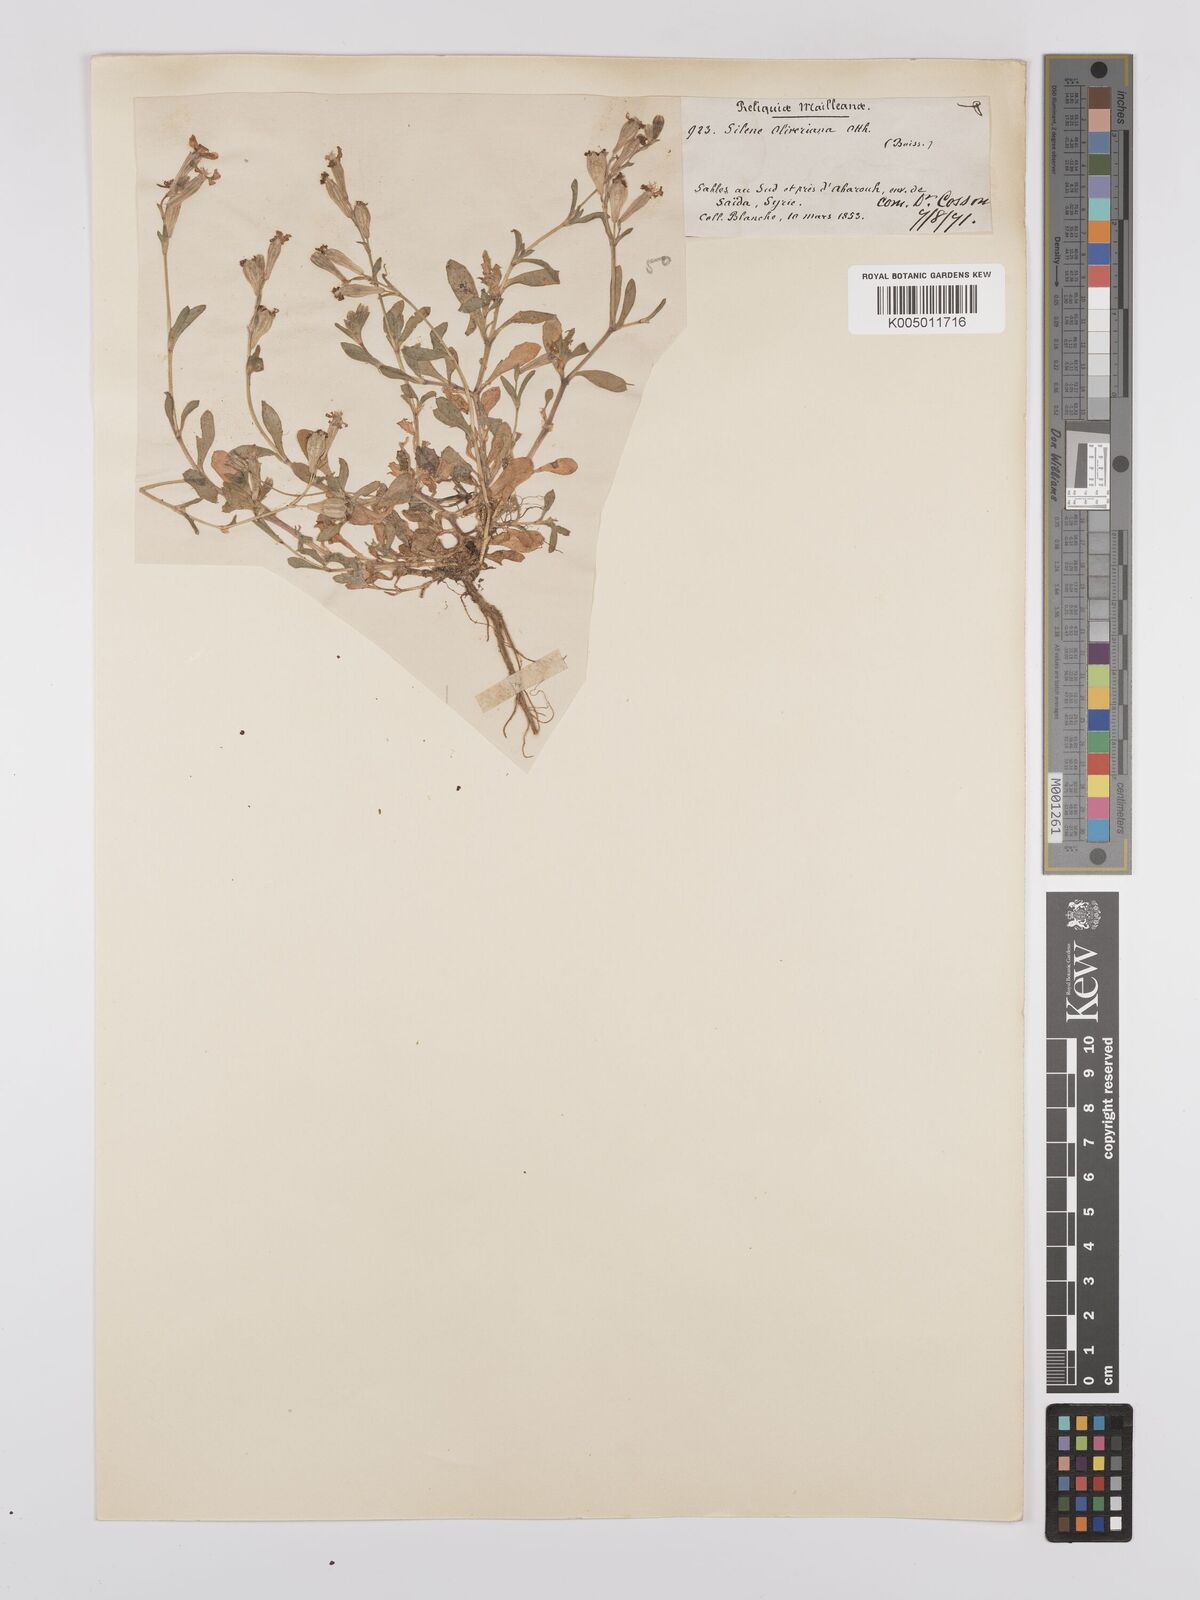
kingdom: Plantae
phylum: Tracheophyta
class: Magnoliopsida
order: Caryophyllales
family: Caryophyllaceae
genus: Silene
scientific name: Silene oliveriana
